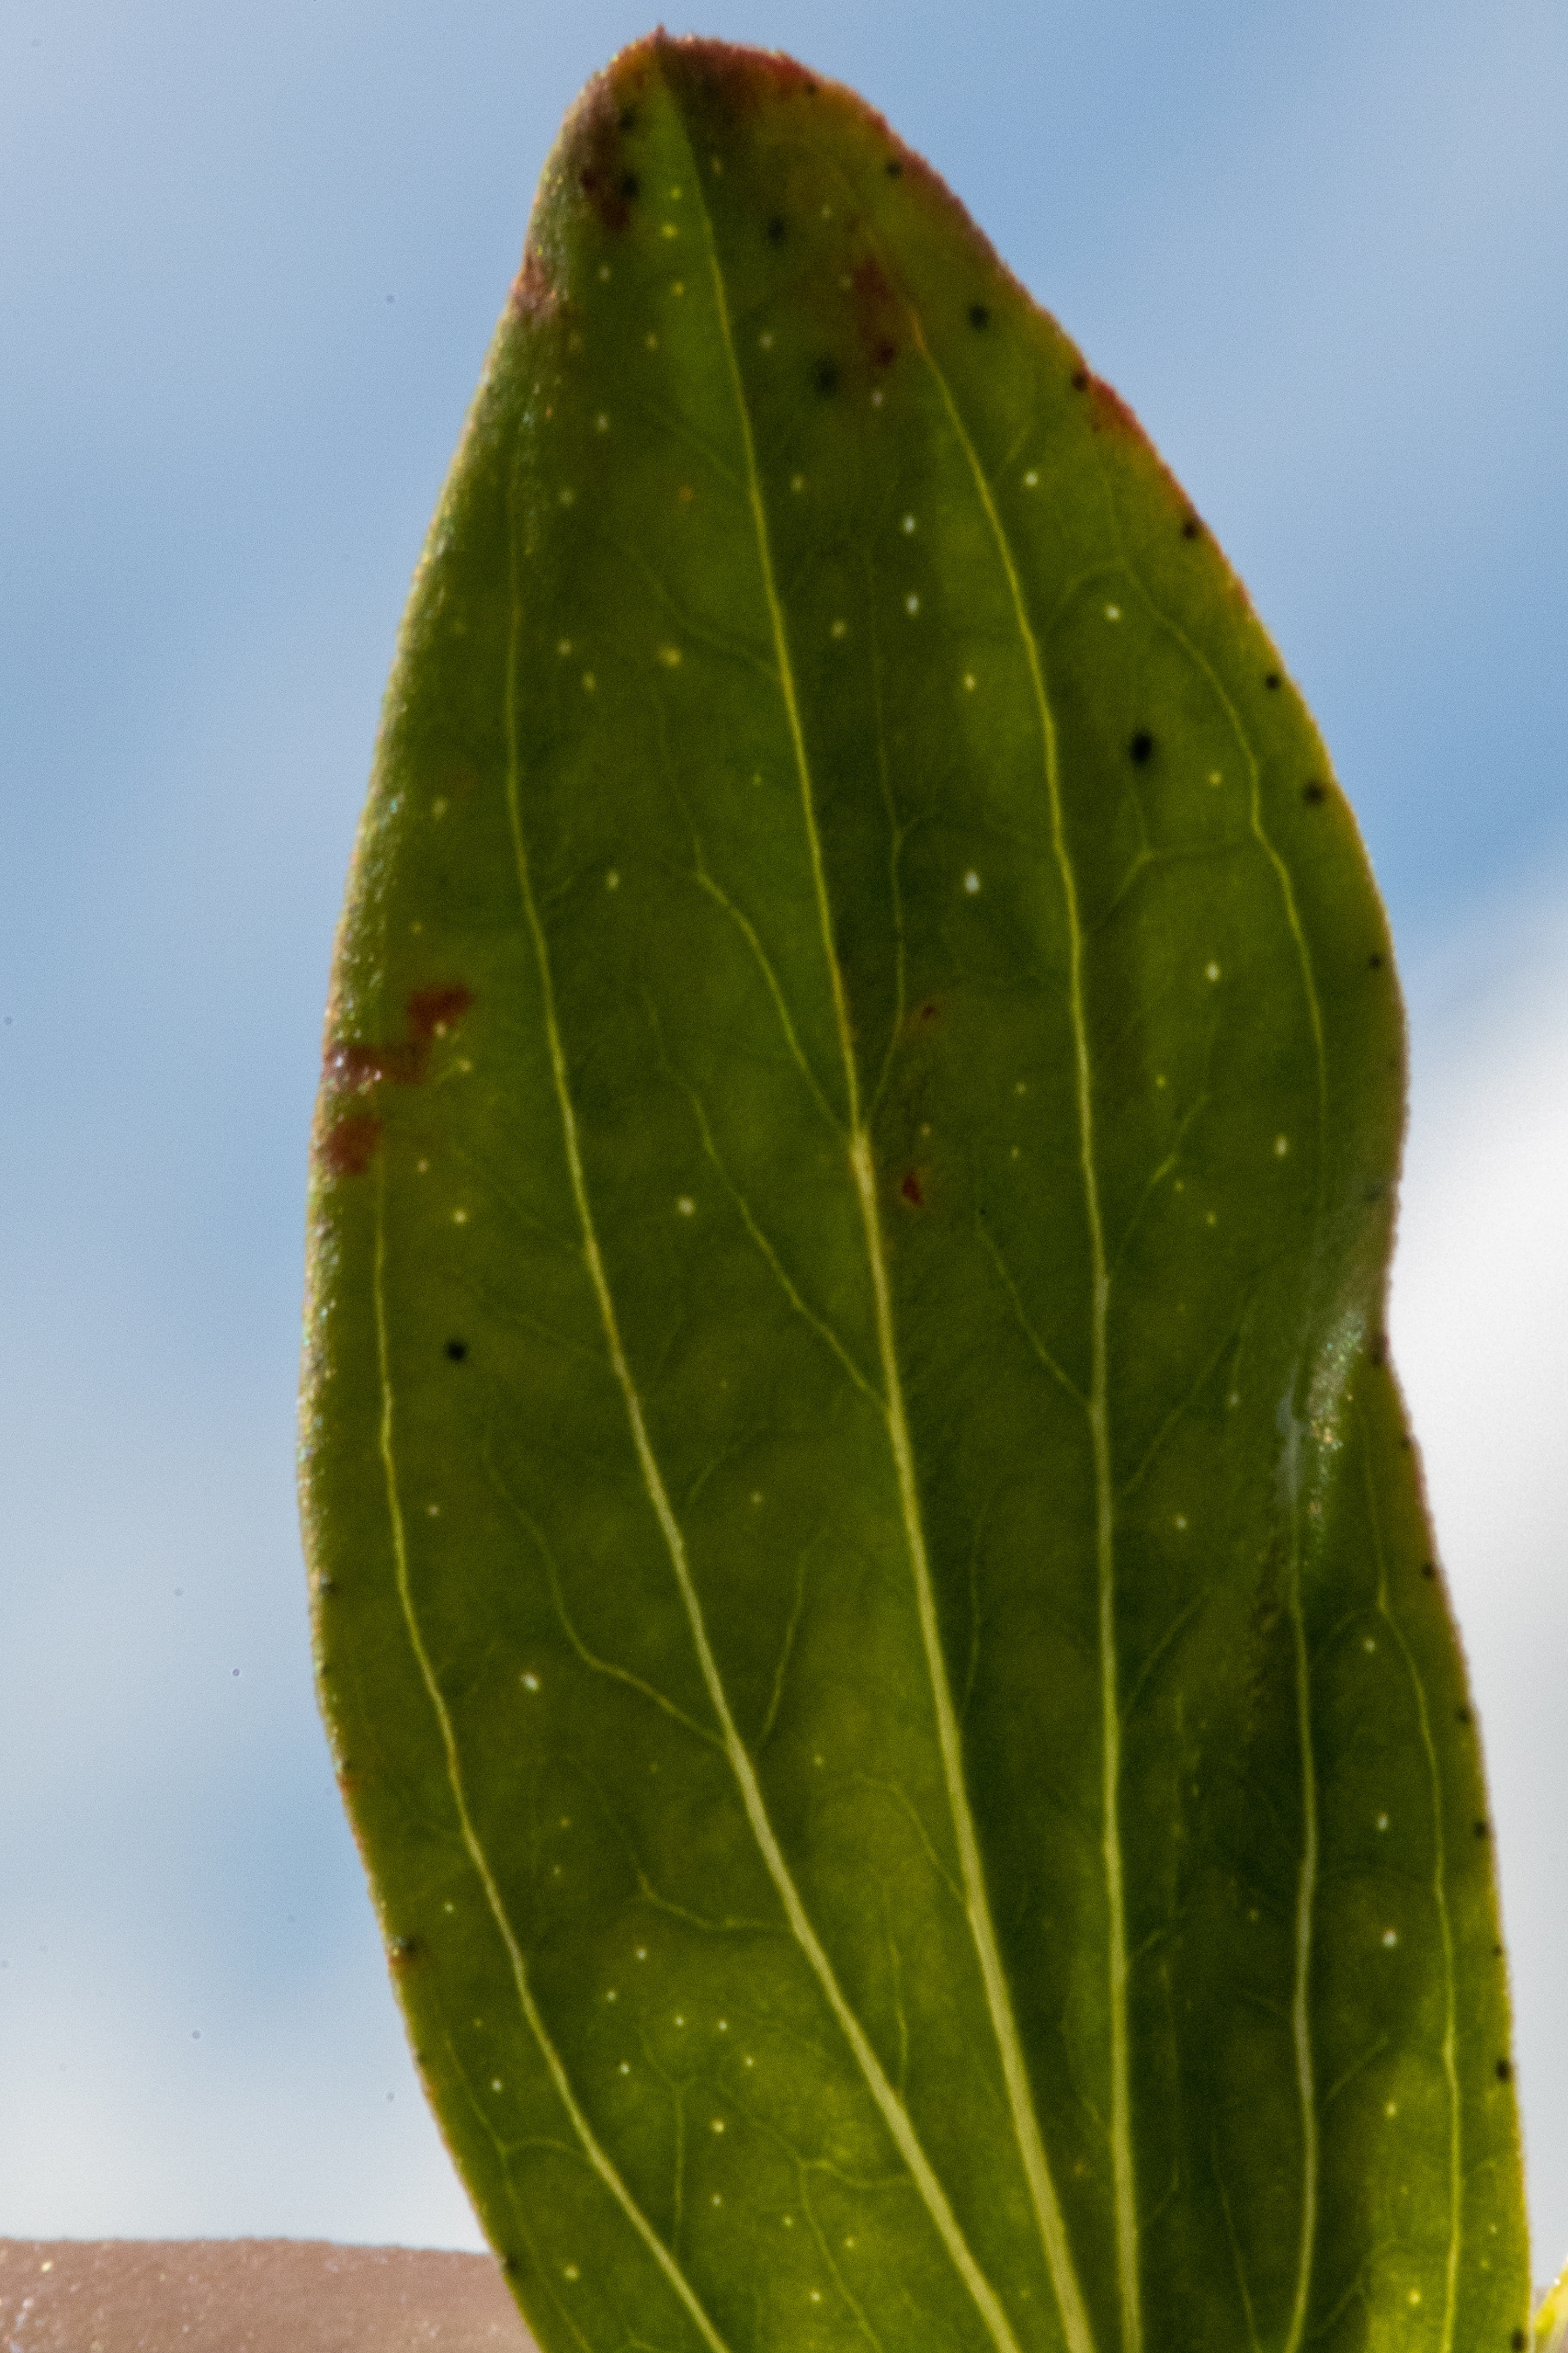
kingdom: Plantae
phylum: Tracheophyta
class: Magnoliopsida
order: Malpighiales
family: Hypericaceae
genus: Hypericum
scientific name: Hypericum perforatum
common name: Prikbladet perikon
